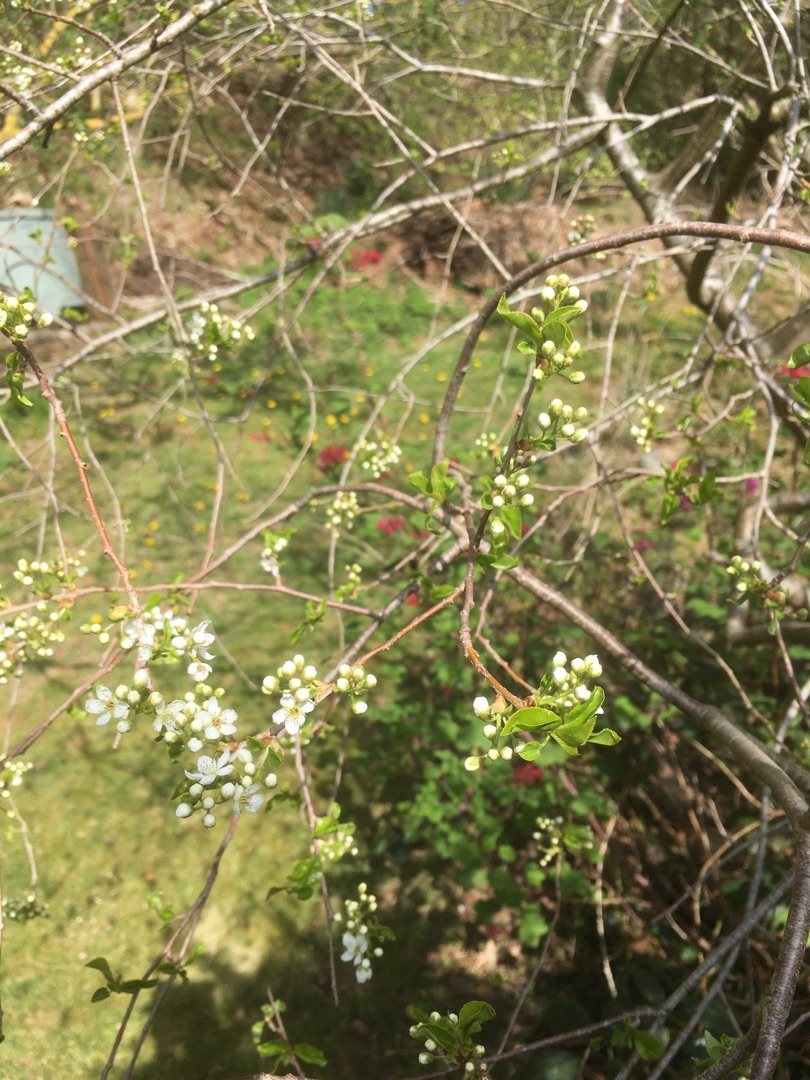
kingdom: Plantae
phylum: Tracheophyta
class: Magnoliopsida
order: Rosales
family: Rosaceae
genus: Prunus
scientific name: Prunus
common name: Blommeslægten
